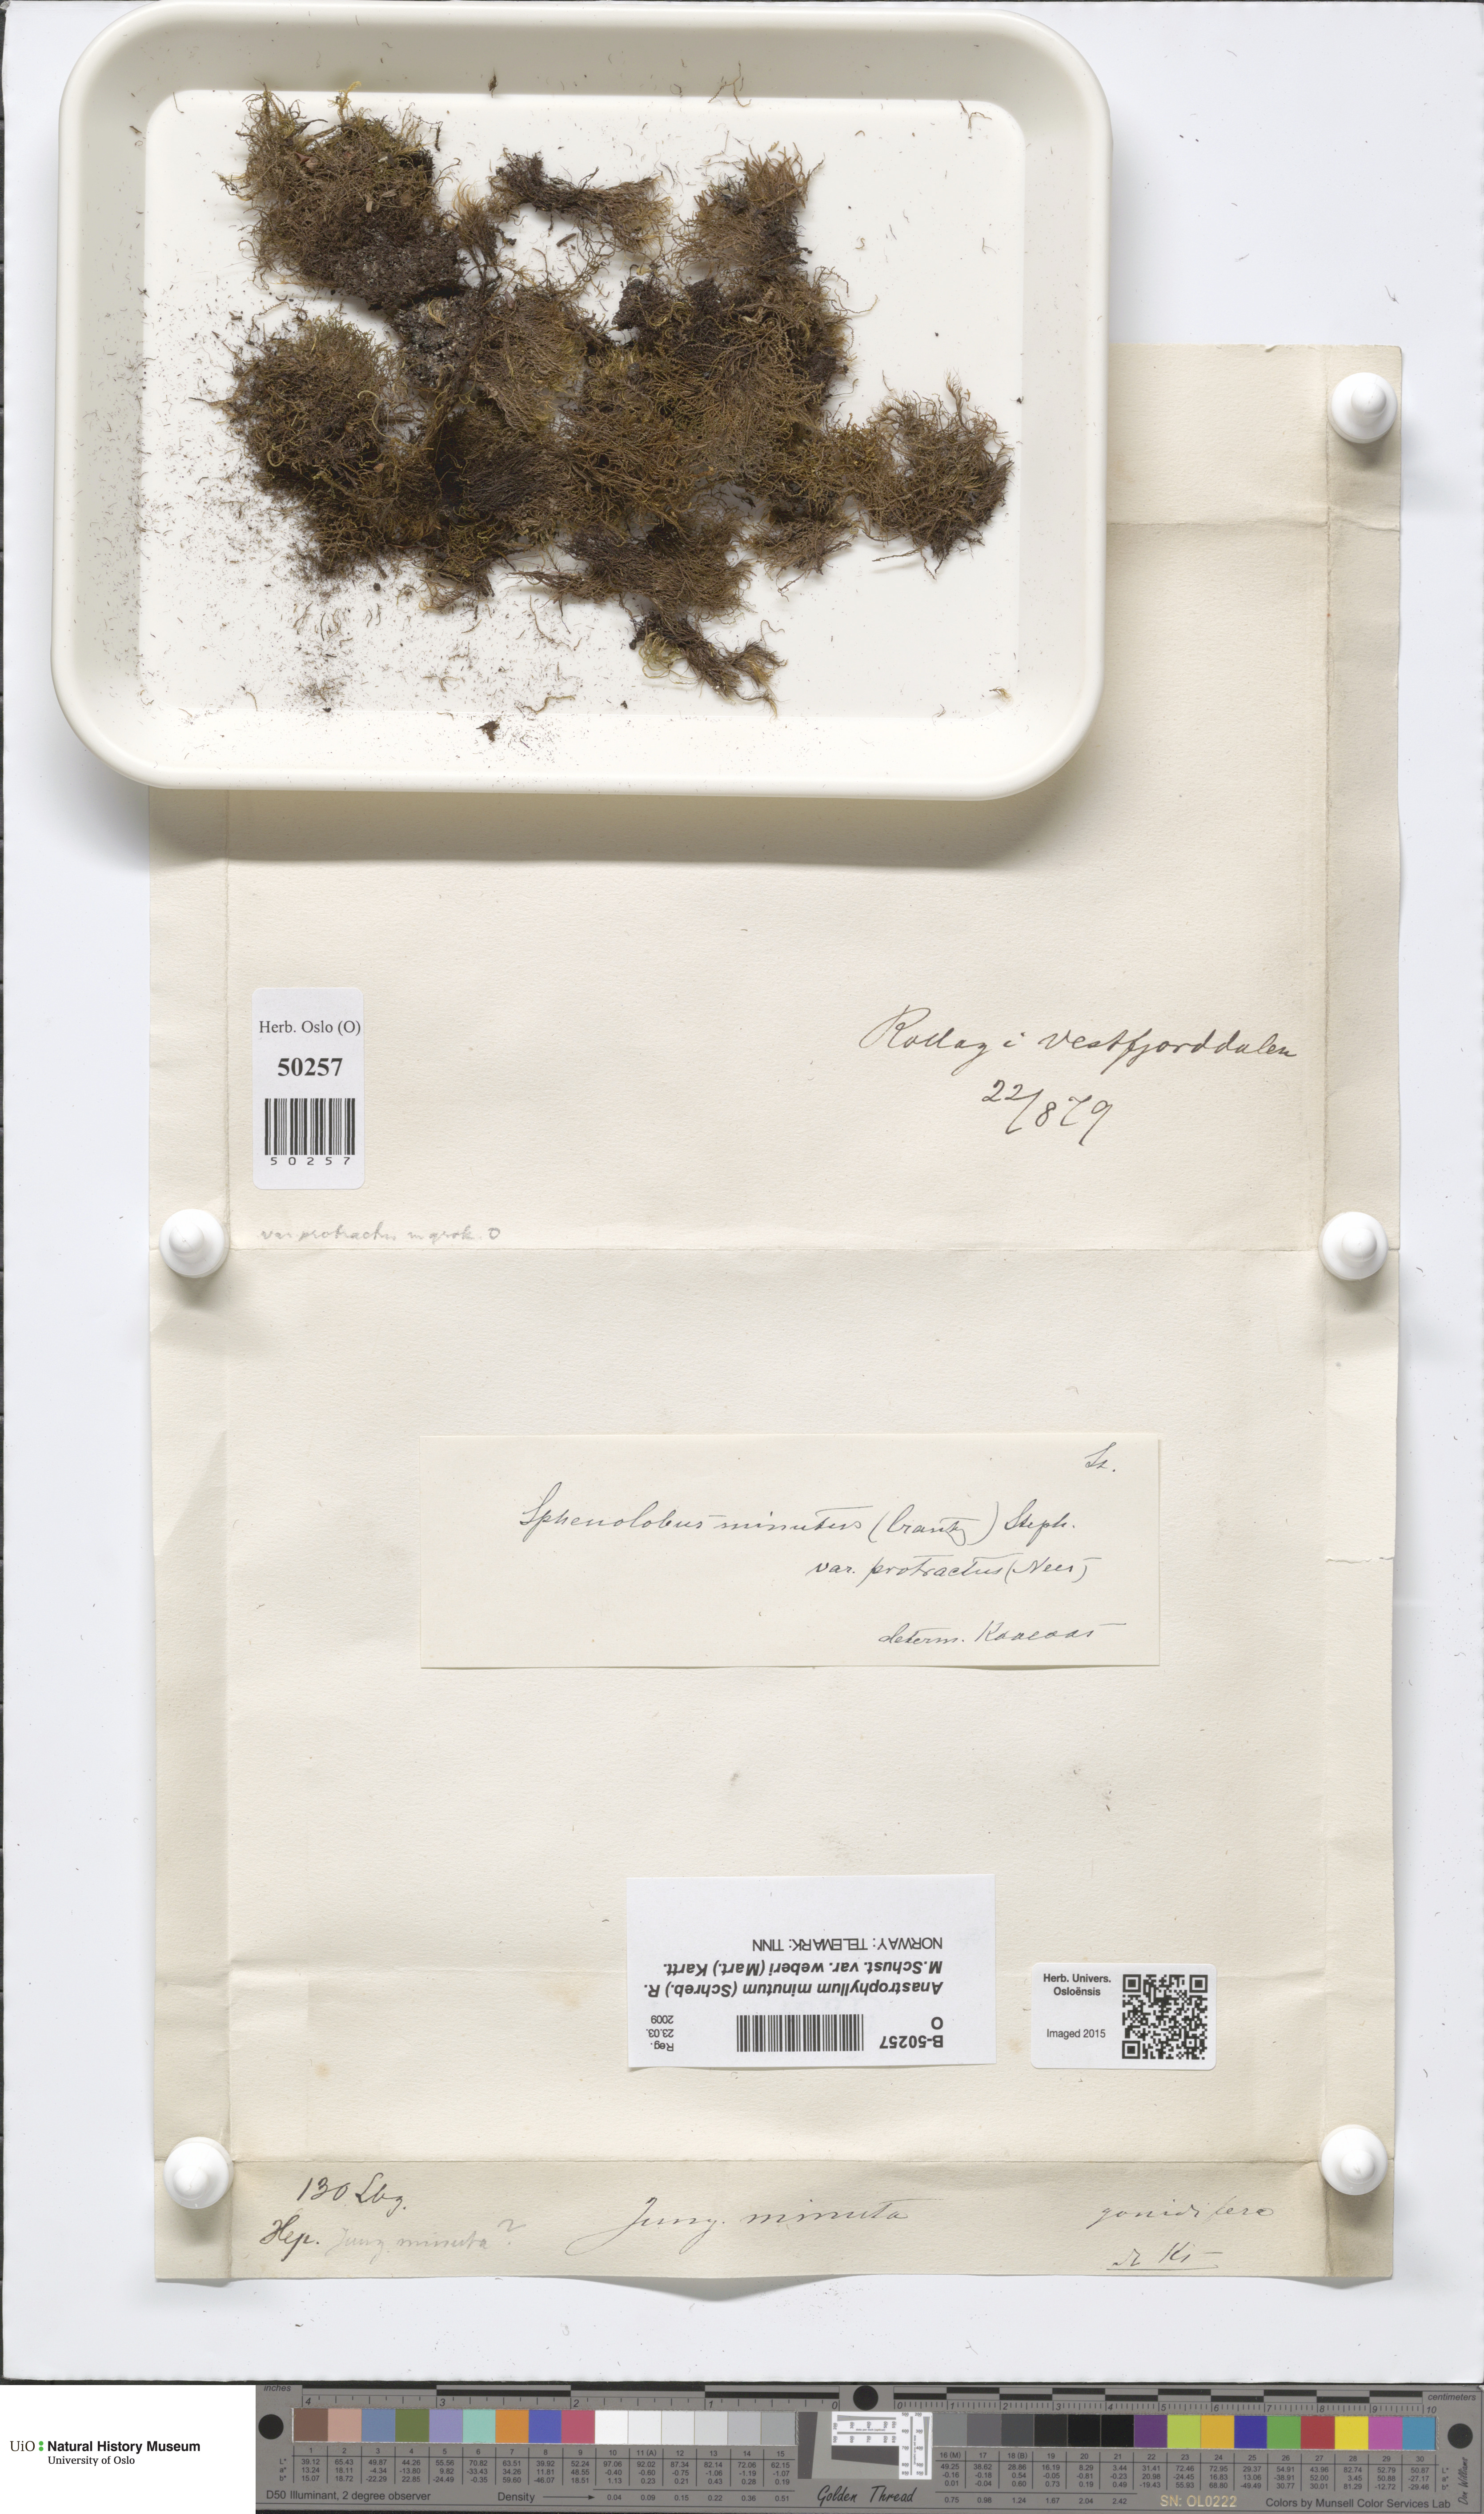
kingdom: Plantae
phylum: Marchantiophyta
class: Jungermanniopsida
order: Jungermanniales
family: Anastrophyllaceae
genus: Sphenolobus
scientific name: Sphenolobus minutus
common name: Comb notchwort
